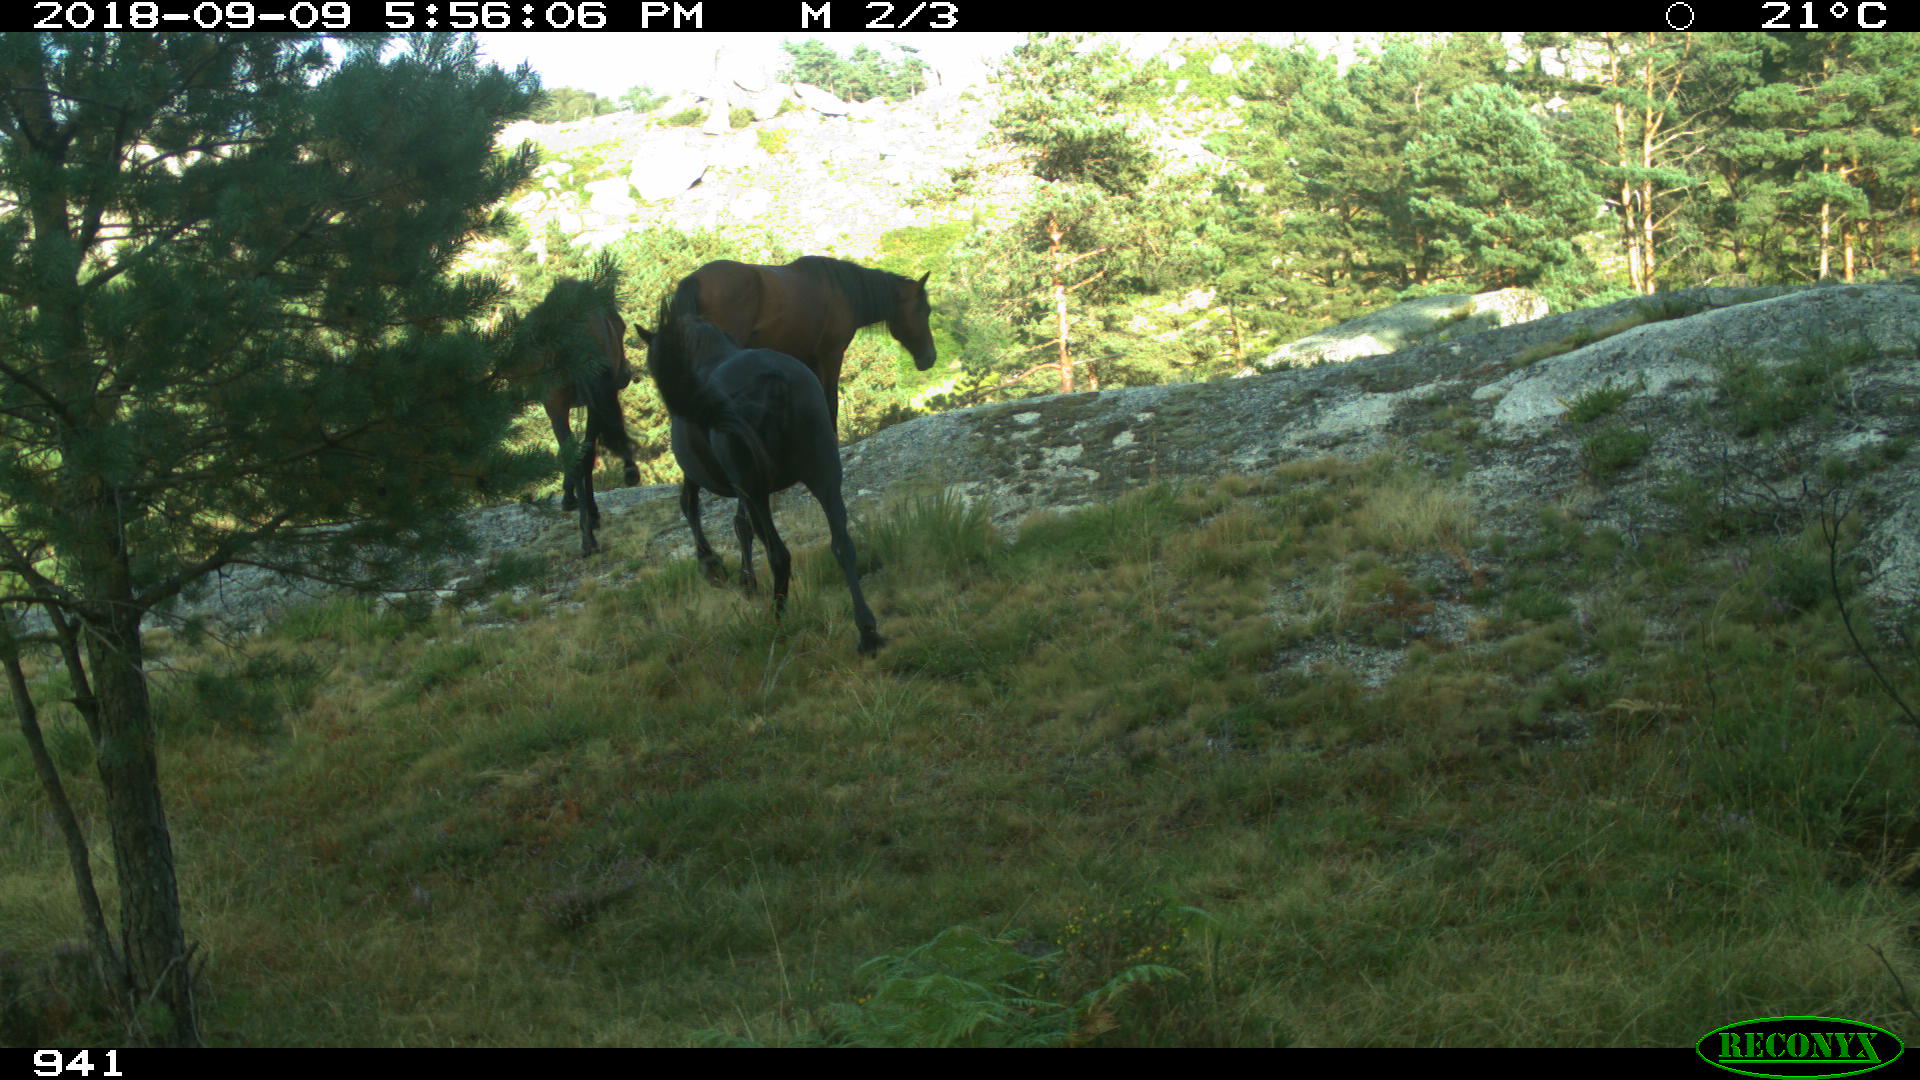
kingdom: Animalia
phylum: Chordata
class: Mammalia
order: Perissodactyla
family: Equidae
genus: Equus
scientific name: Equus caballus
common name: Horse
